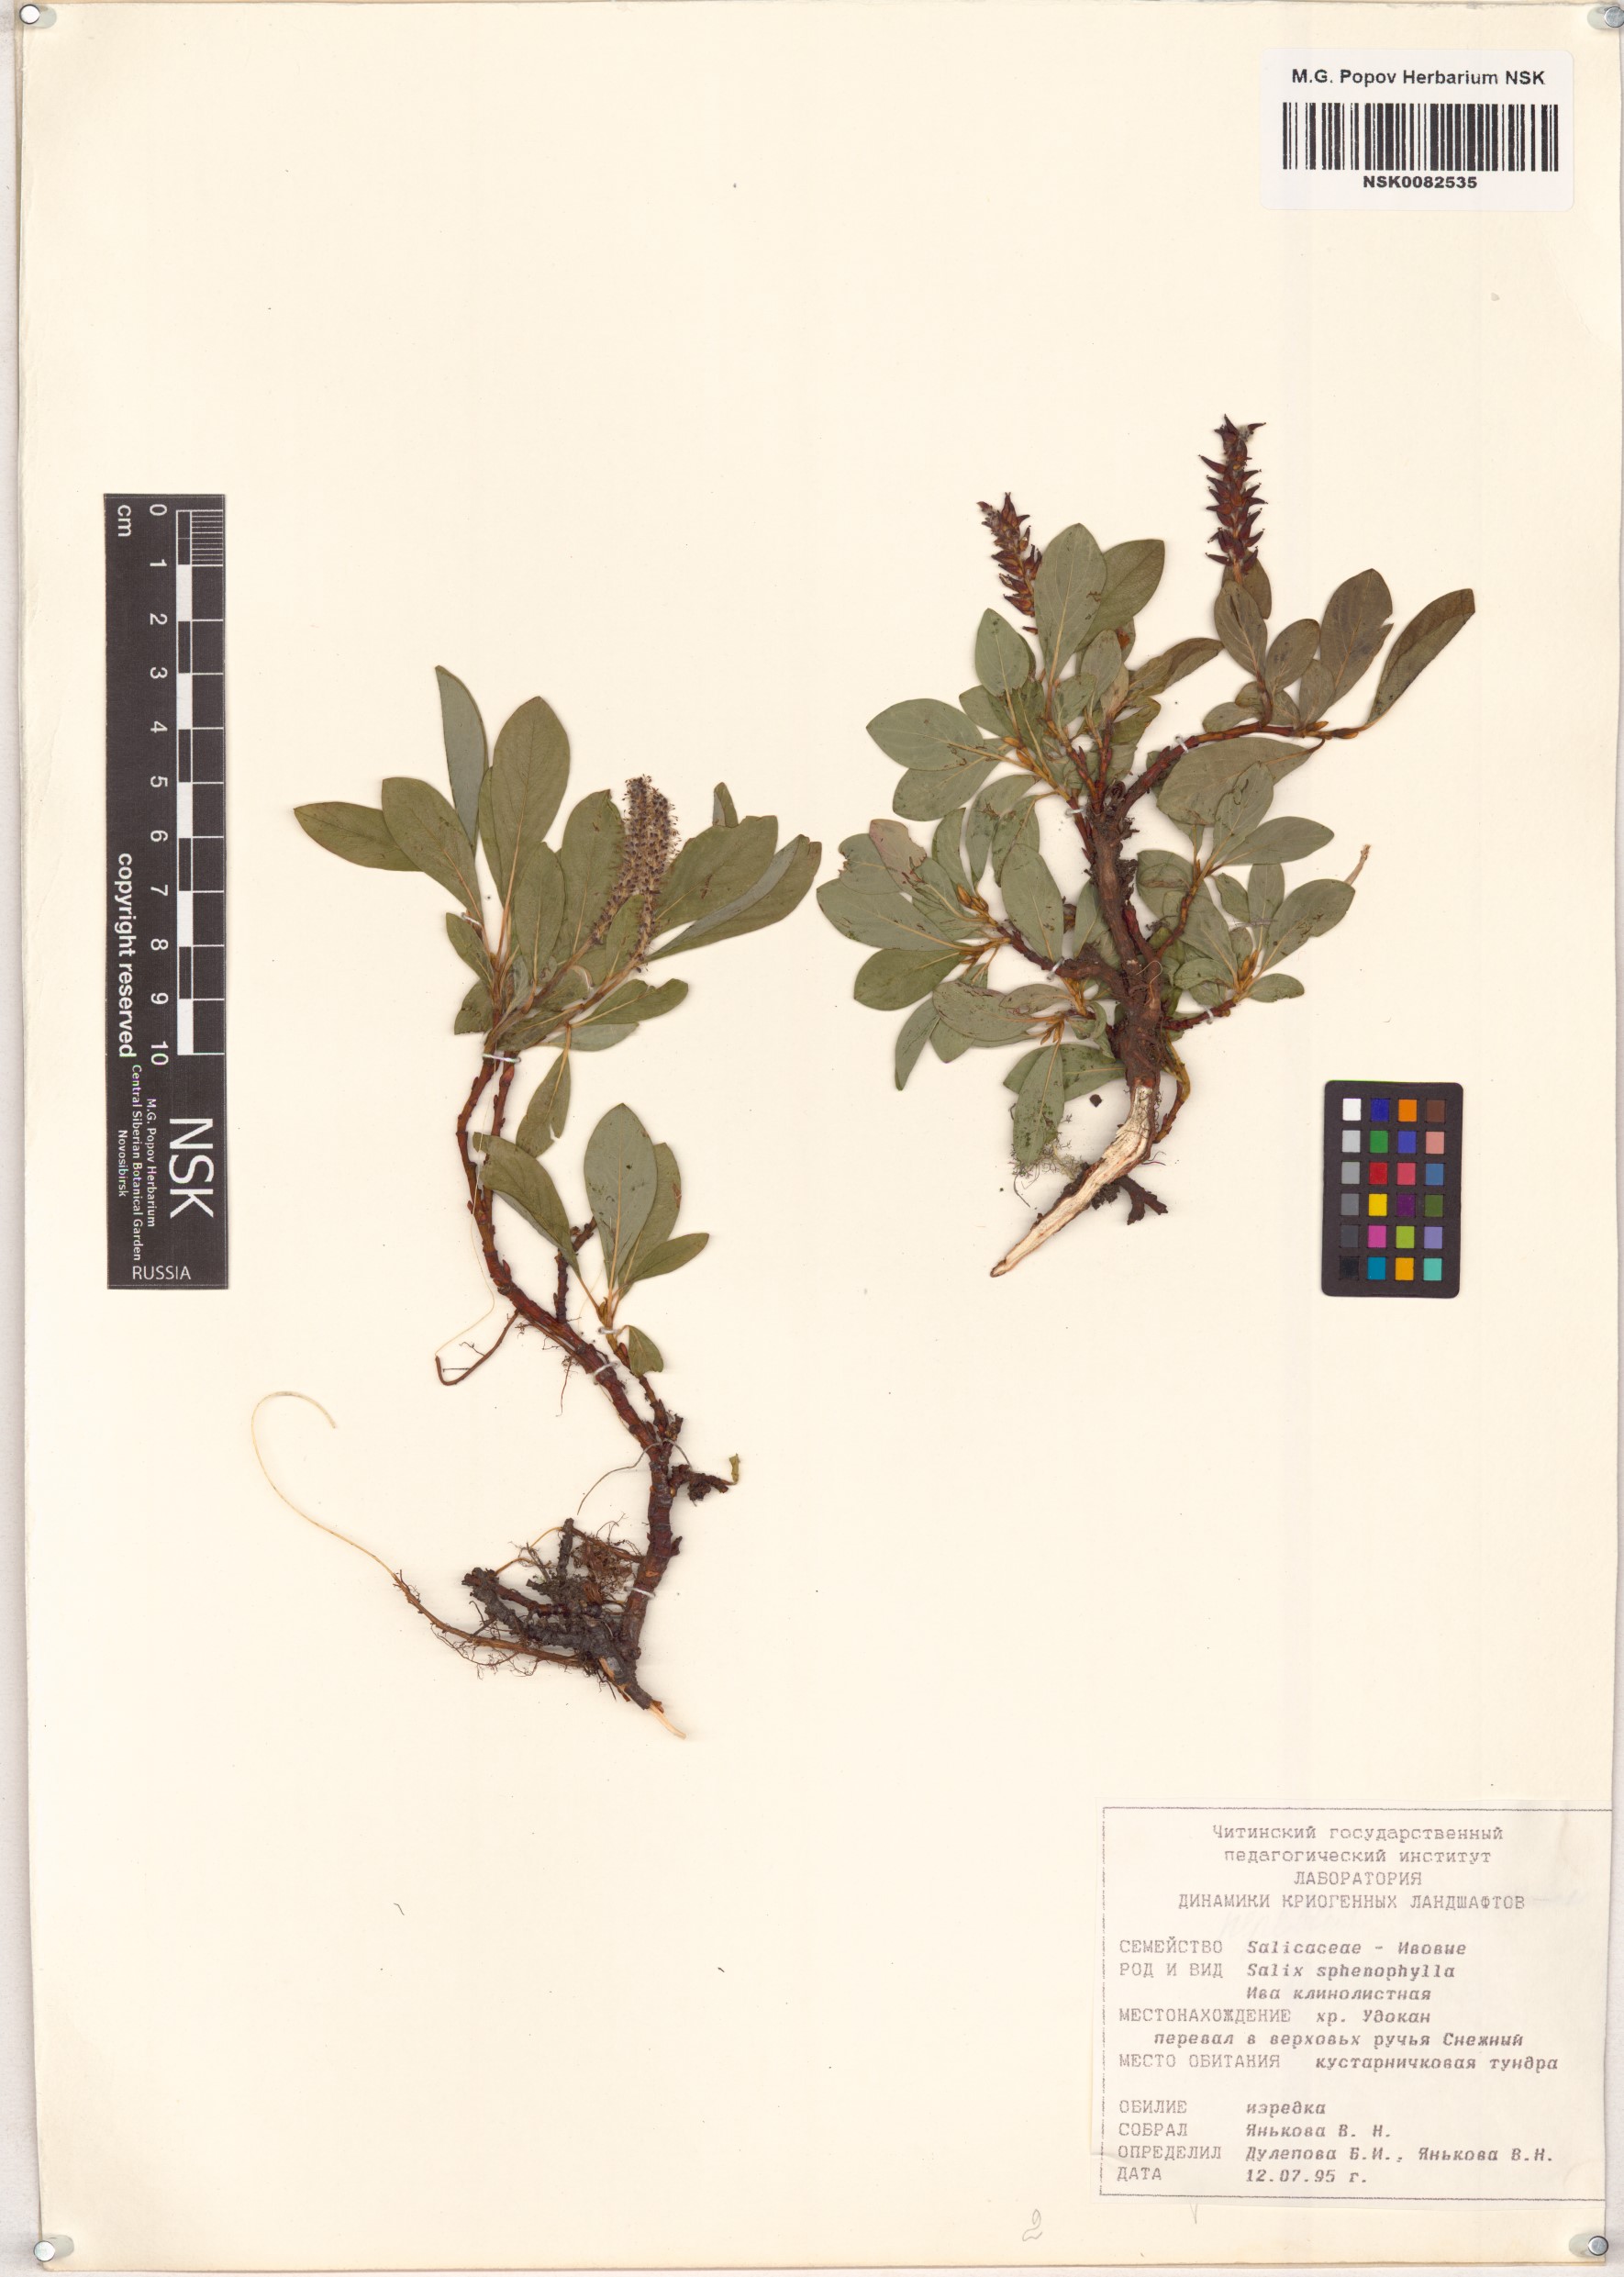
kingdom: Plantae
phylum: Tracheophyta
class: Magnoliopsida
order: Malpighiales
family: Salicaceae
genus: Salix
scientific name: Salix sphenophylla
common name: Wedge-leaved willow
